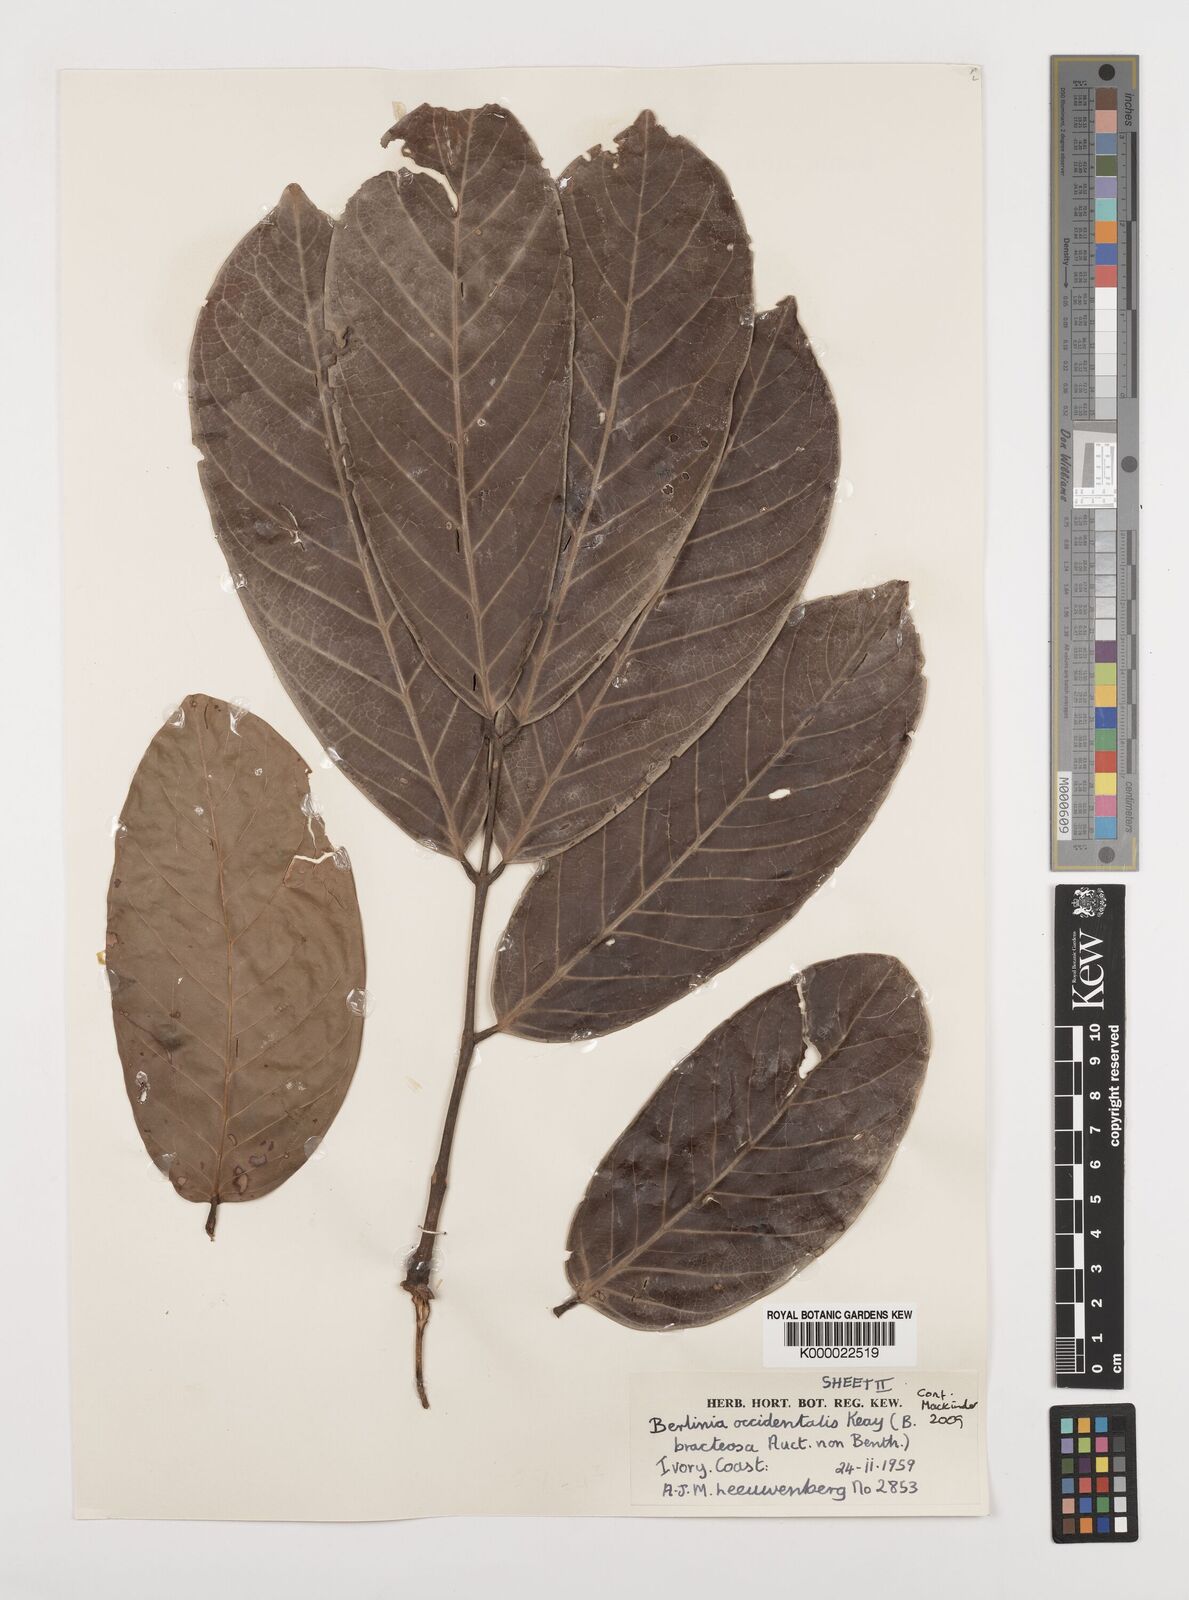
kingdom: Plantae
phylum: Tracheophyta
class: Magnoliopsida
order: Fabales
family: Fabaceae
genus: Berlinia
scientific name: Berlinia occidentalis
